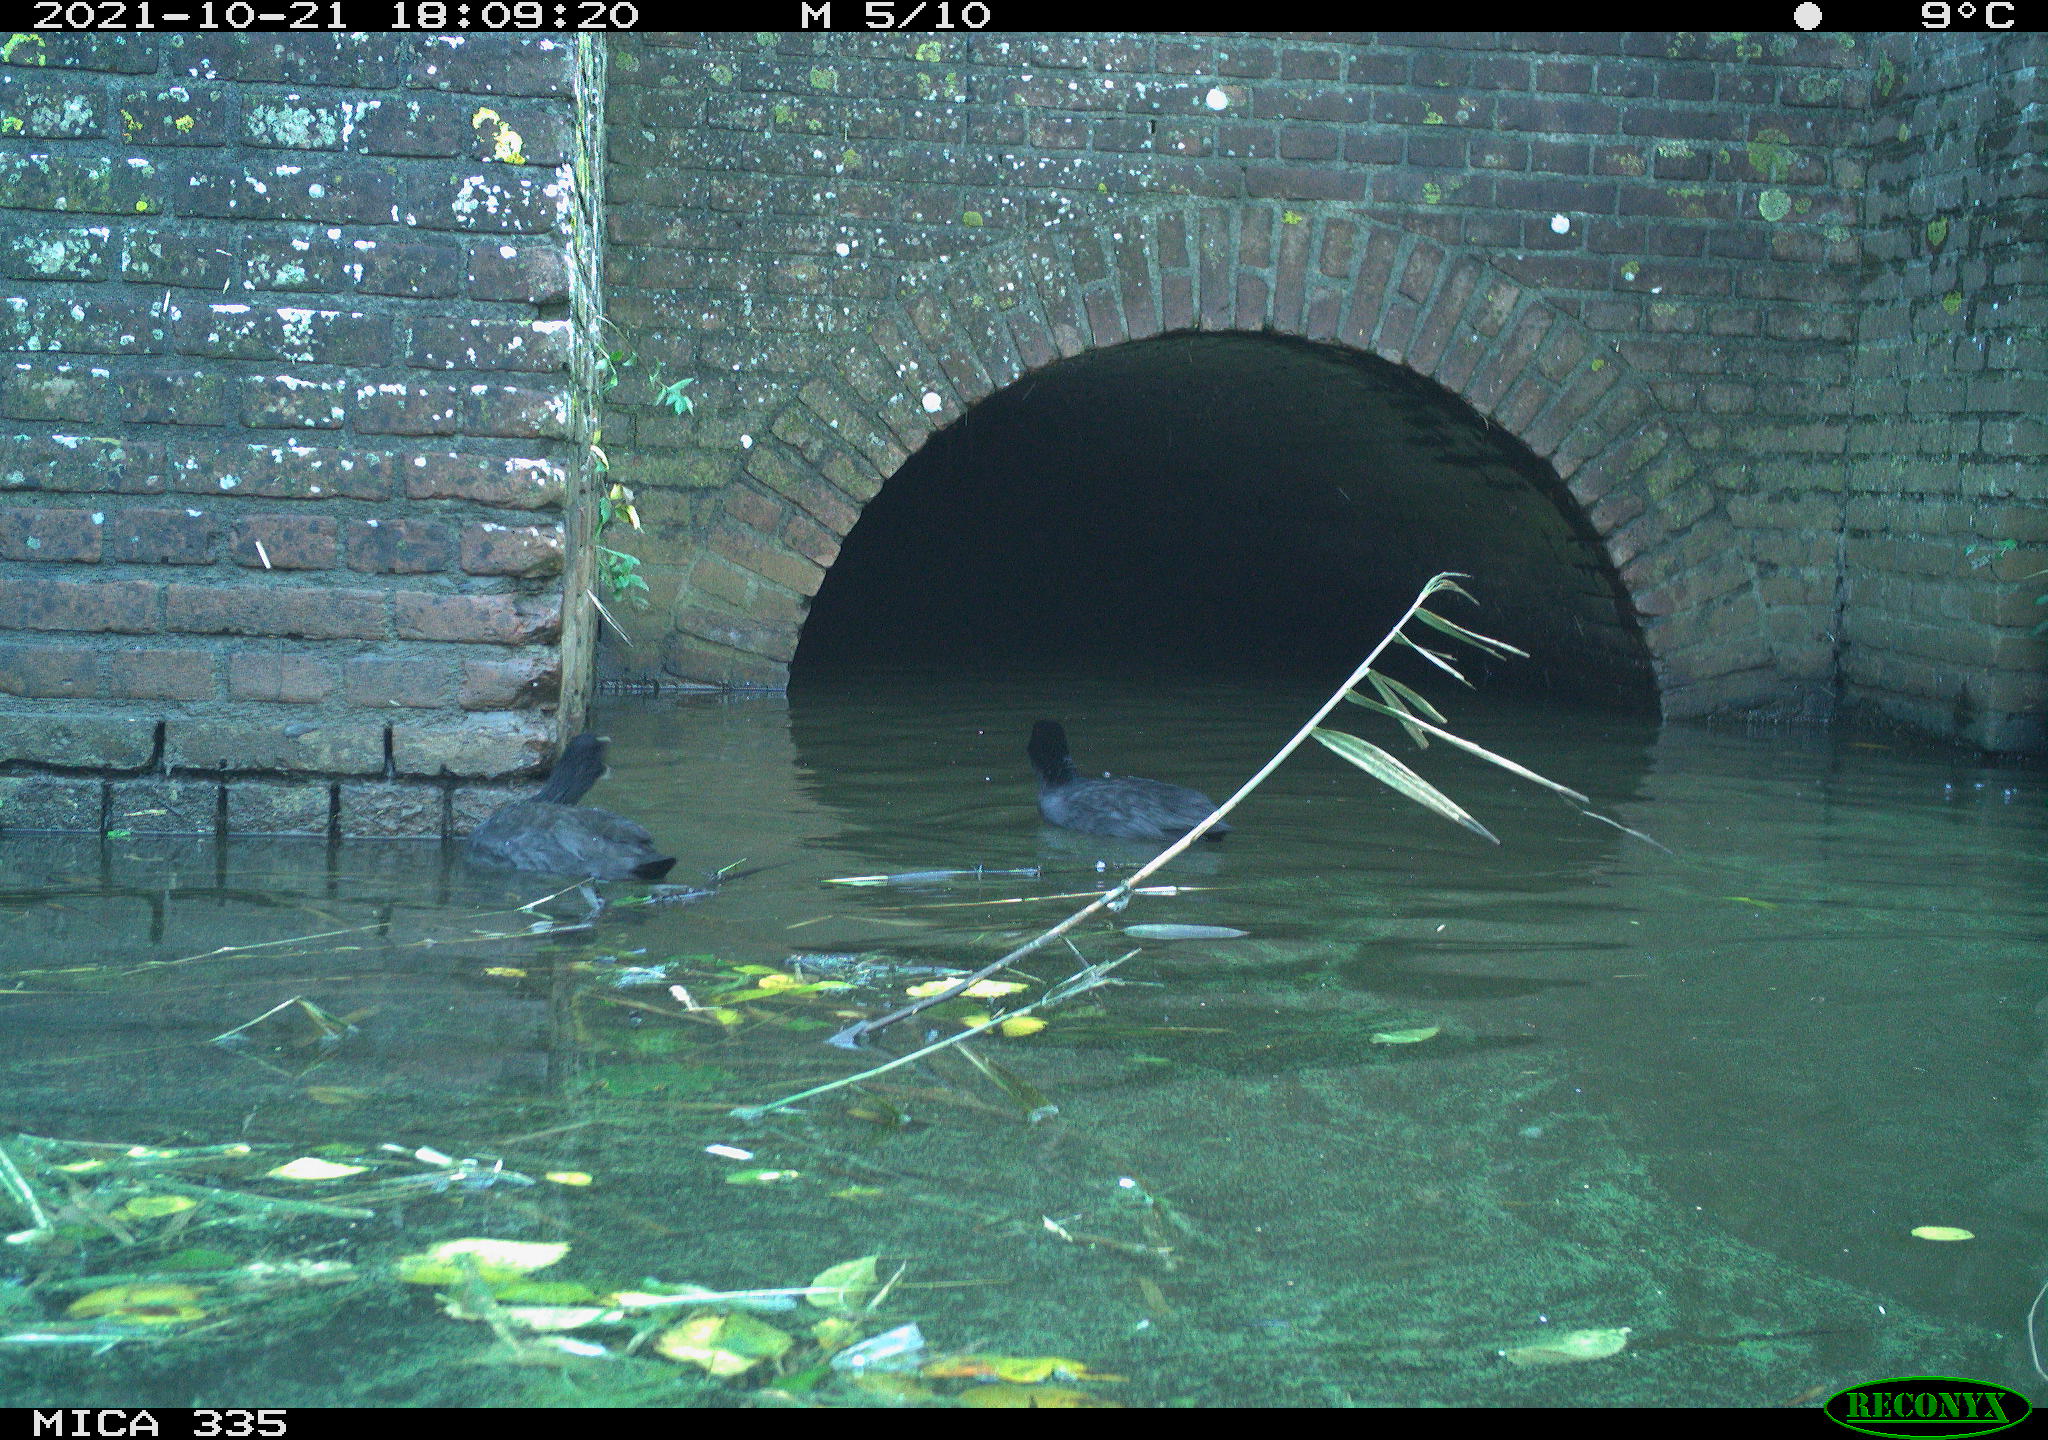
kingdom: Animalia
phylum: Chordata
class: Aves
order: Gruiformes
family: Rallidae
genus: Fulica
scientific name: Fulica atra
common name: Eurasian coot
